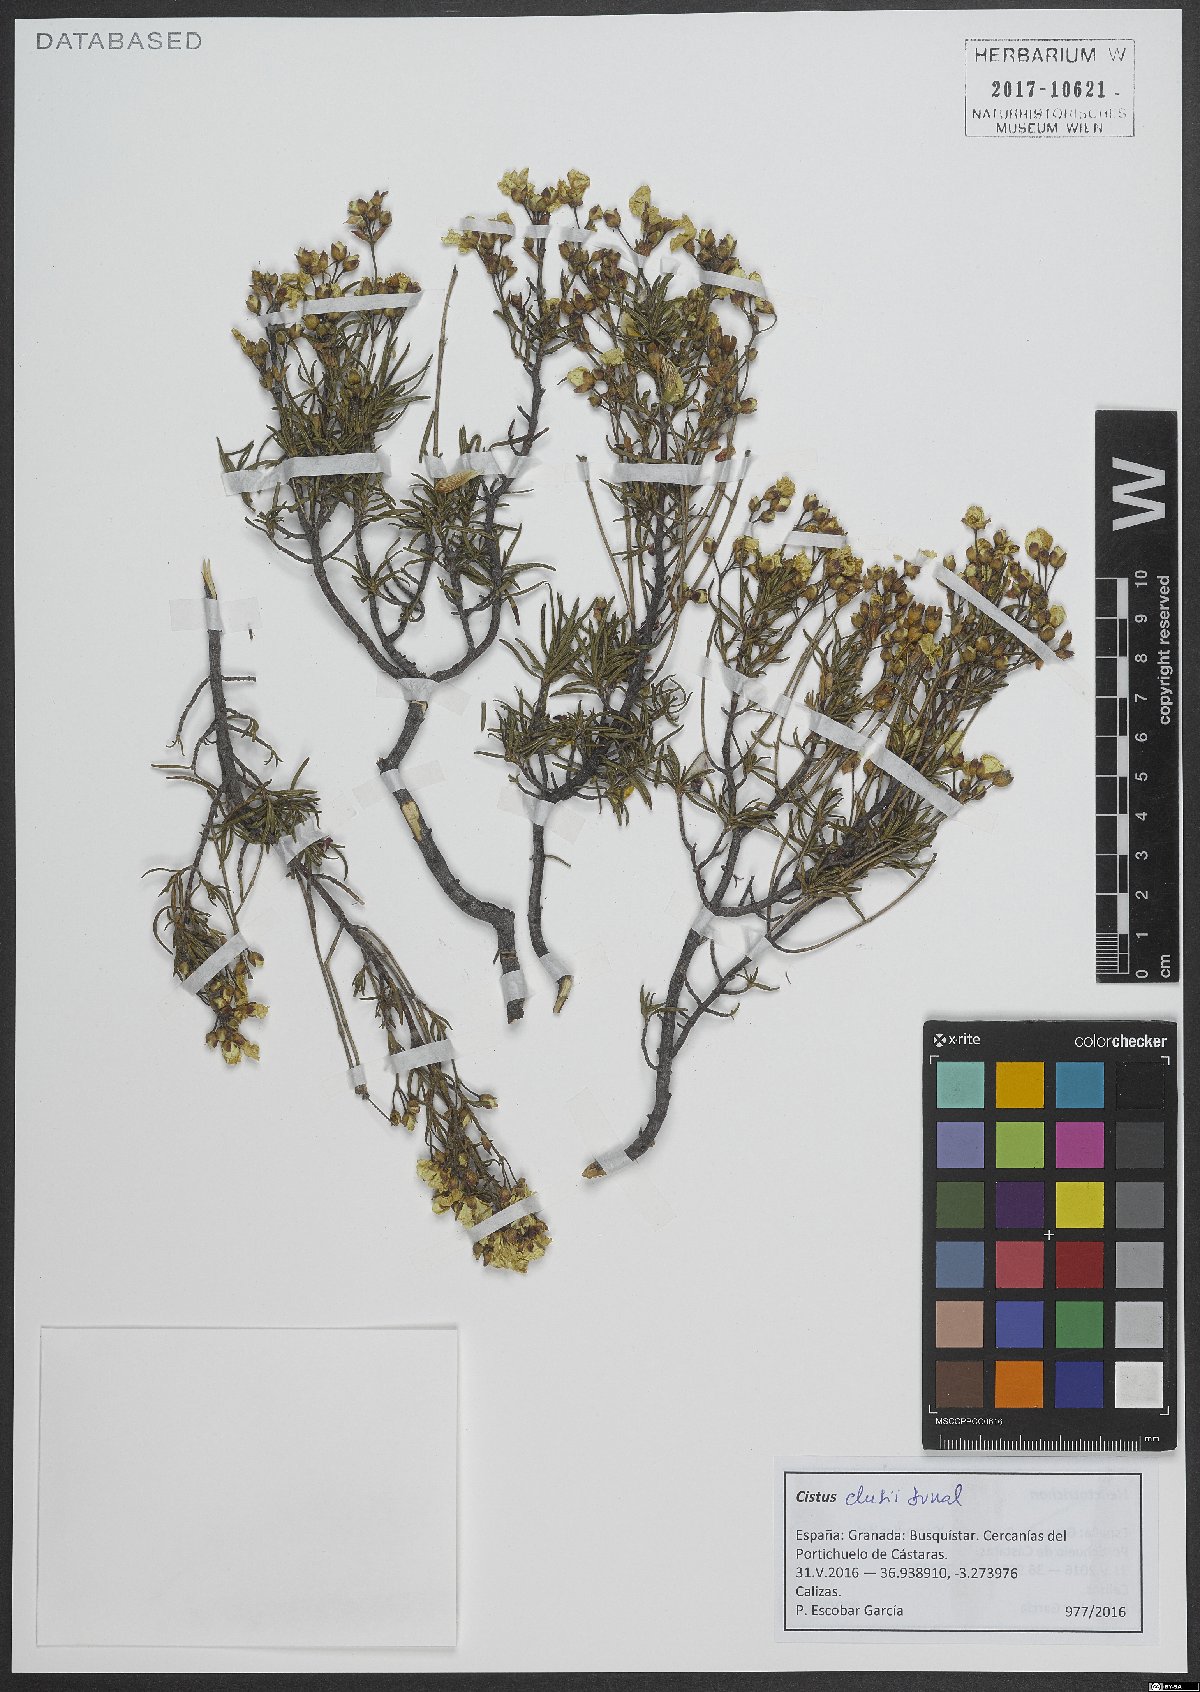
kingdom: Plantae
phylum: Tracheophyta
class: Magnoliopsida
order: Malvales
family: Cistaceae
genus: Cistus
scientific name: Cistus clusii
